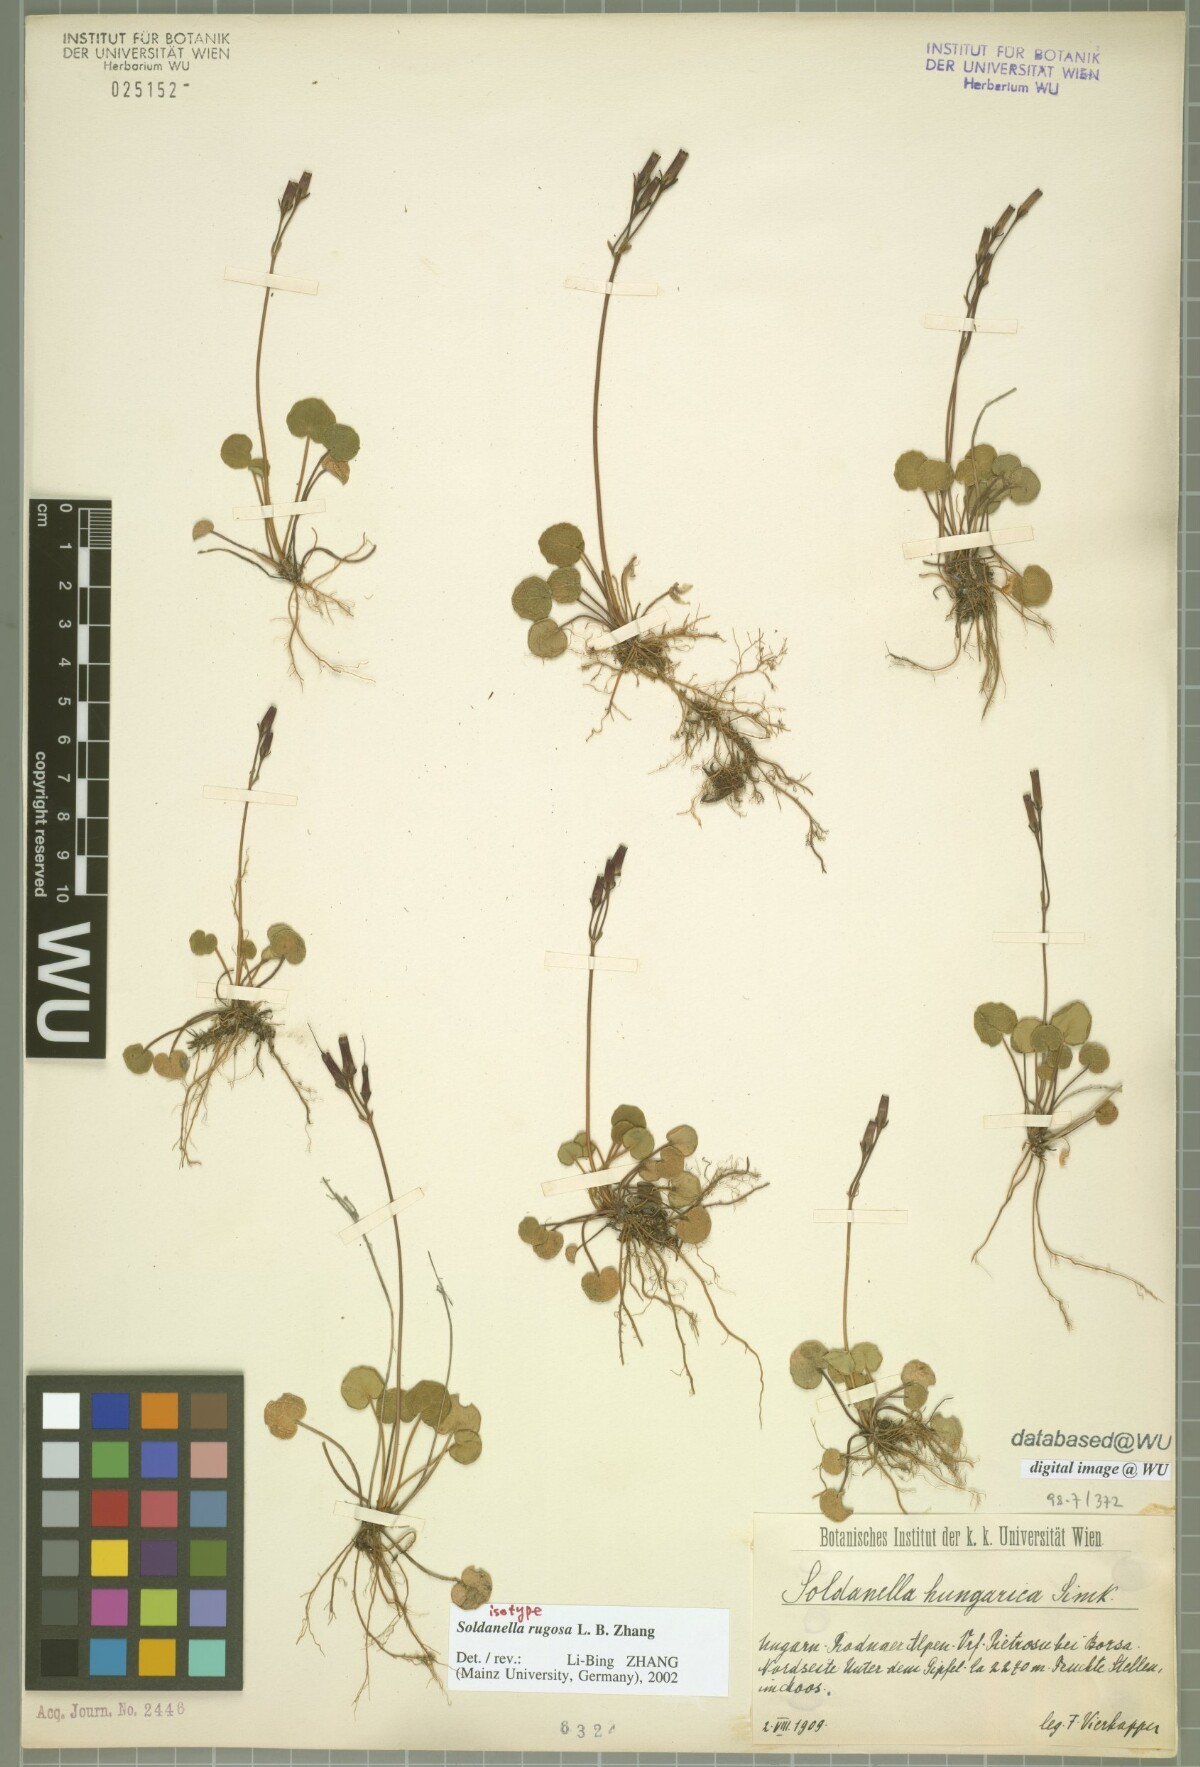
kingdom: Plantae
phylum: Tracheophyta
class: Magnoliopsida
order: Ericales
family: Primulaceae
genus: Soldanella
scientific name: Soldanella rugosa
